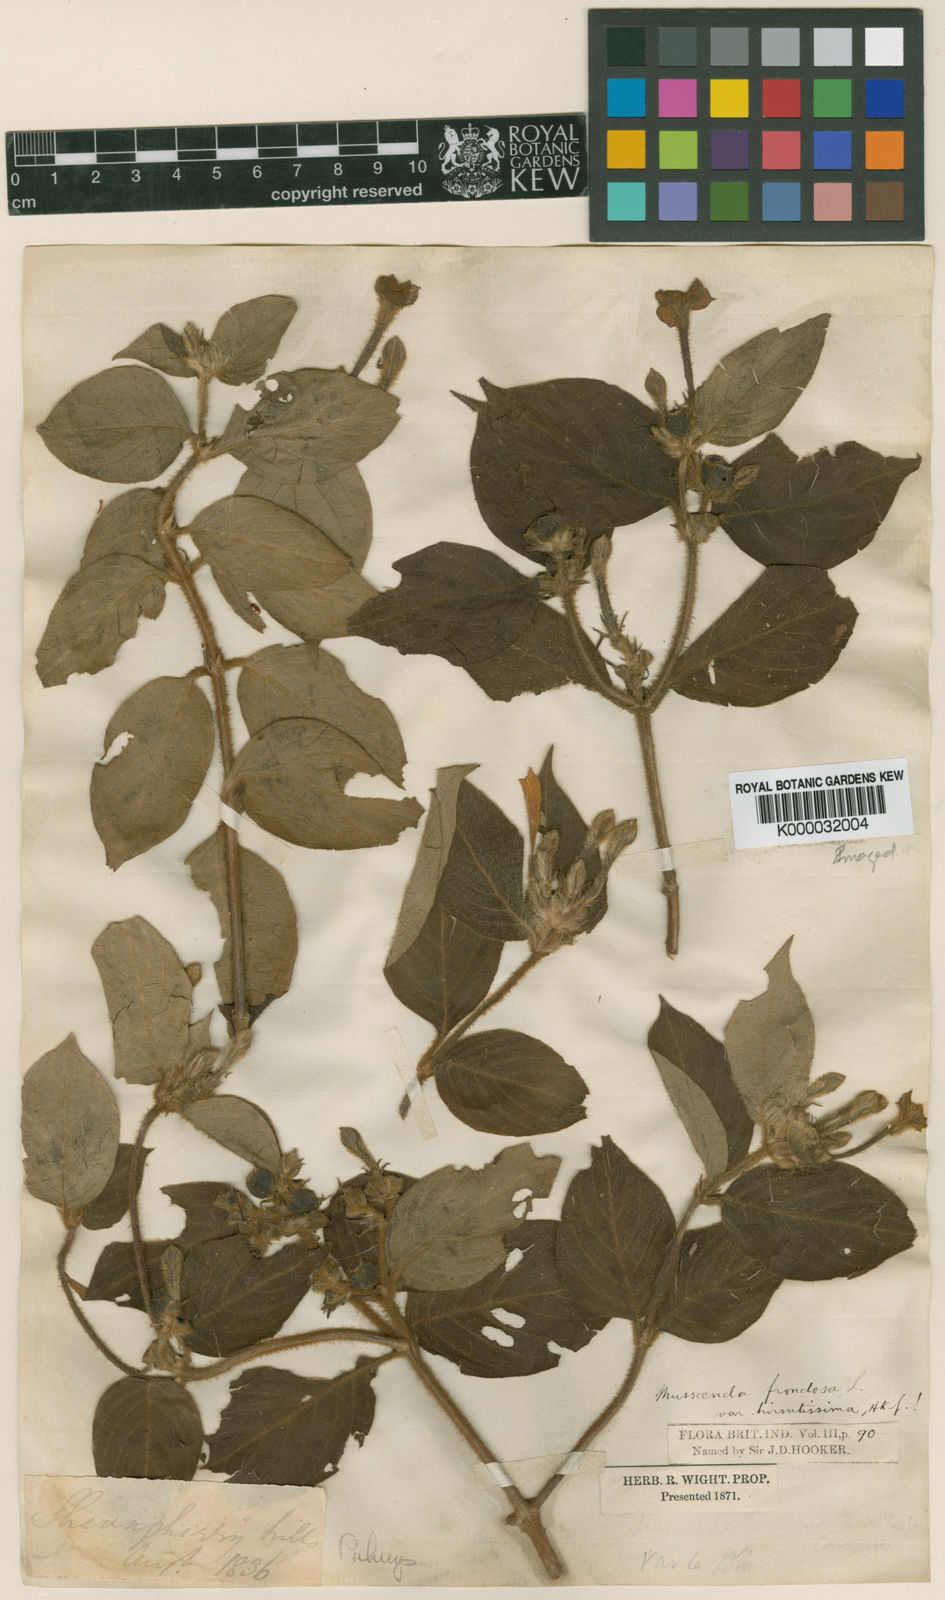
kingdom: Plantae
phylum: Tracheophyta
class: Magnoliopsida
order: Gentianales
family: Rubiaceae
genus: Mussaenda
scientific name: Mussaenda hirsutissima
